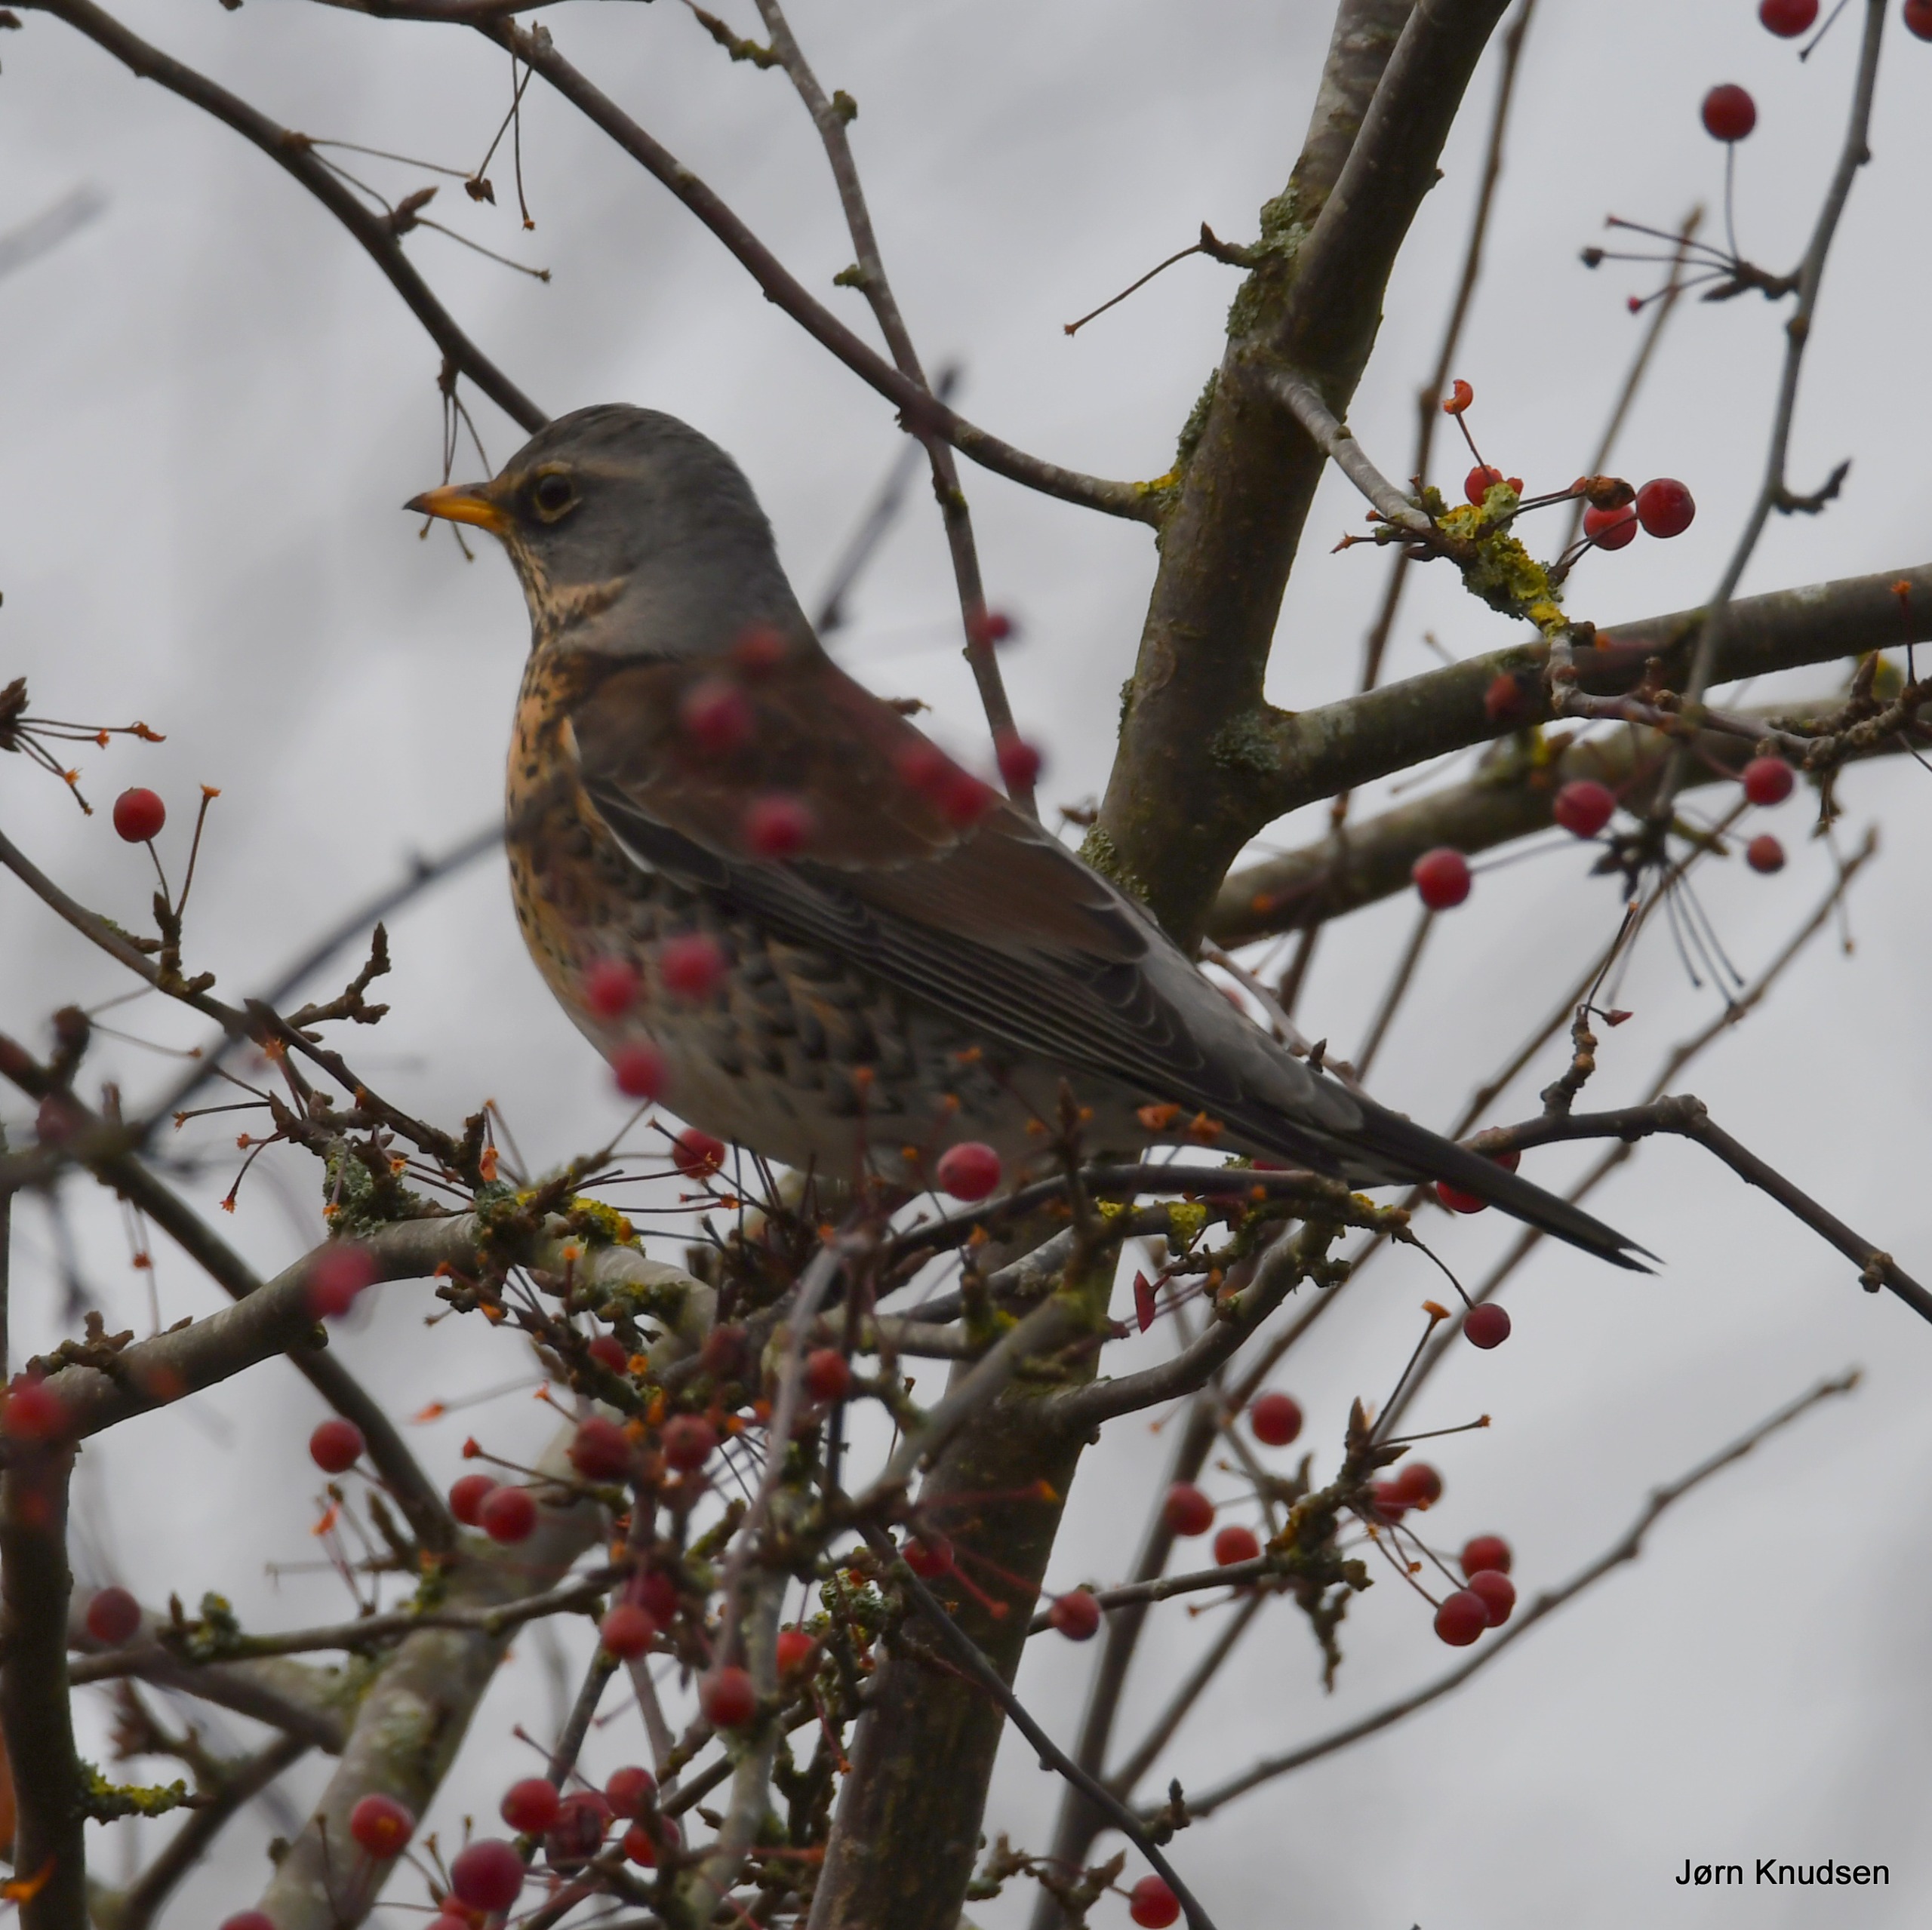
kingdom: Animalia
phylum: Chordata
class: Aves
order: Passeriformes
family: Turdidae
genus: Turdus
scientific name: Turdus pilaris
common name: Sjagger
